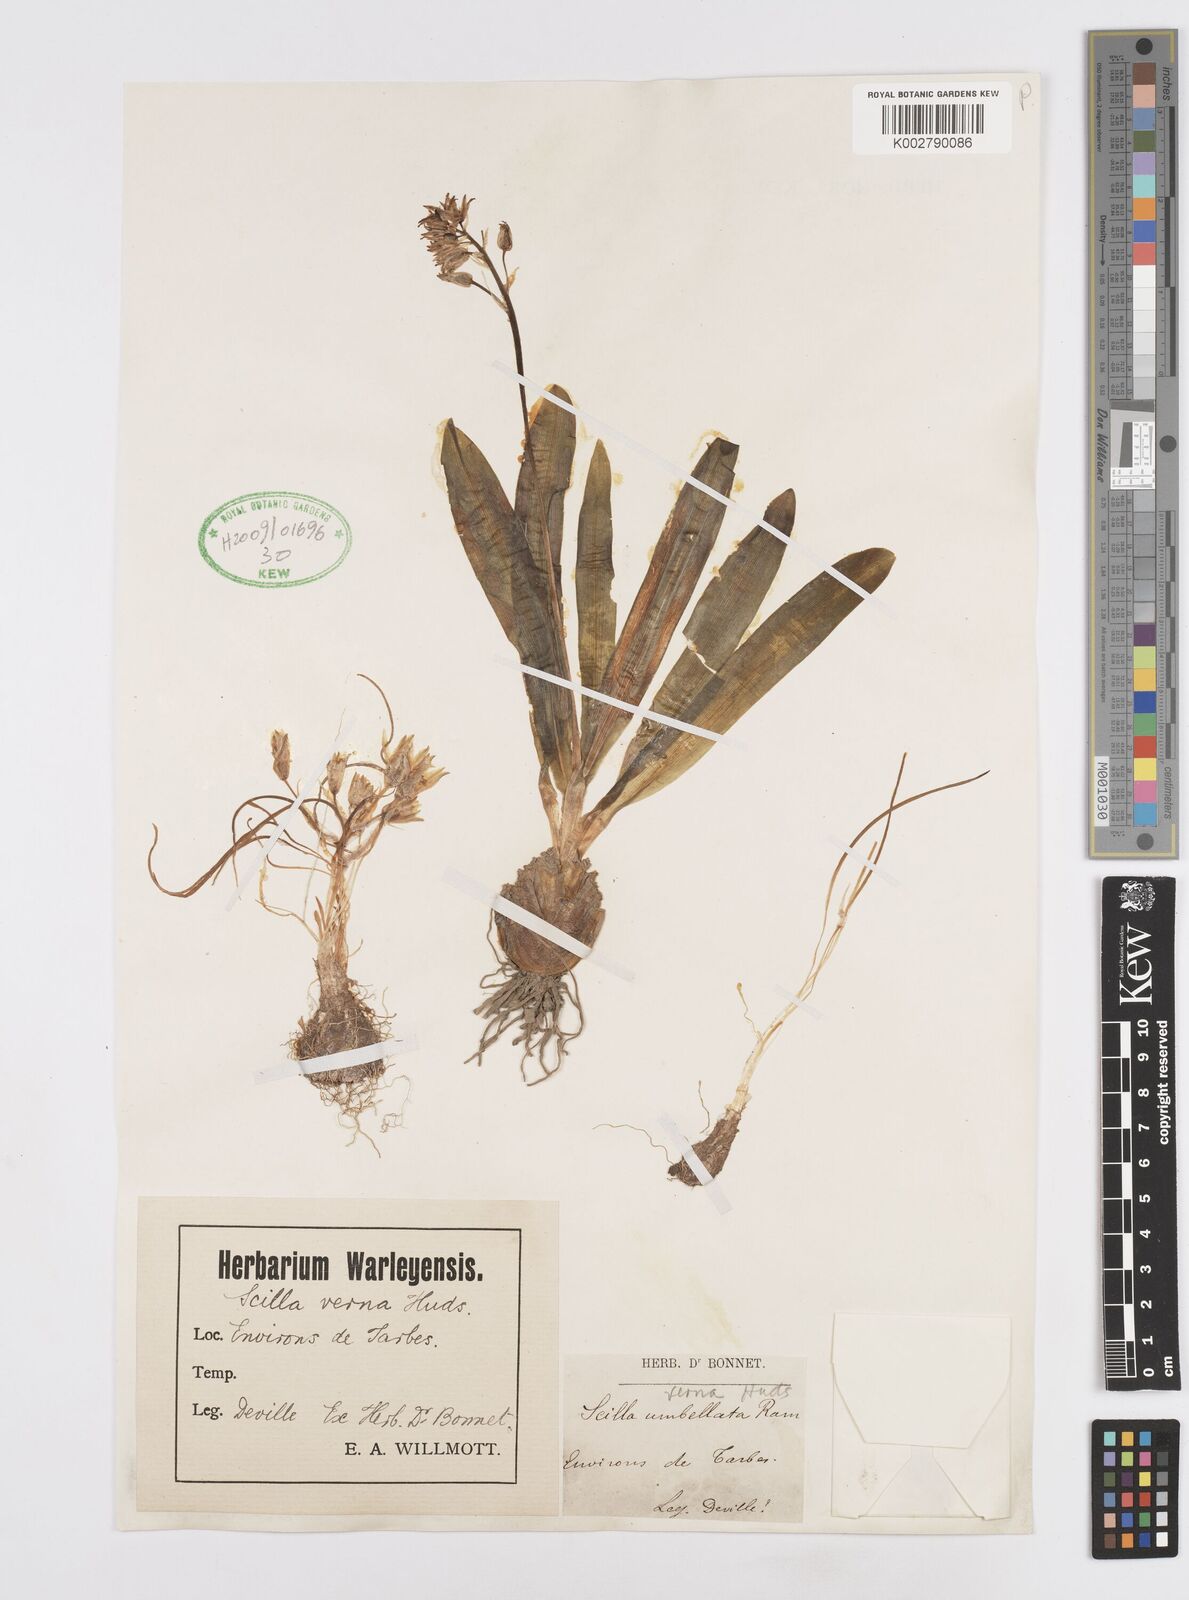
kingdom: Plantae
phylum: Tracheophyta
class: Liliopsida
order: Asparagales
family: Asparagaceae
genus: Scilla
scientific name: Scilla hyacinthoides
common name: Scilla
